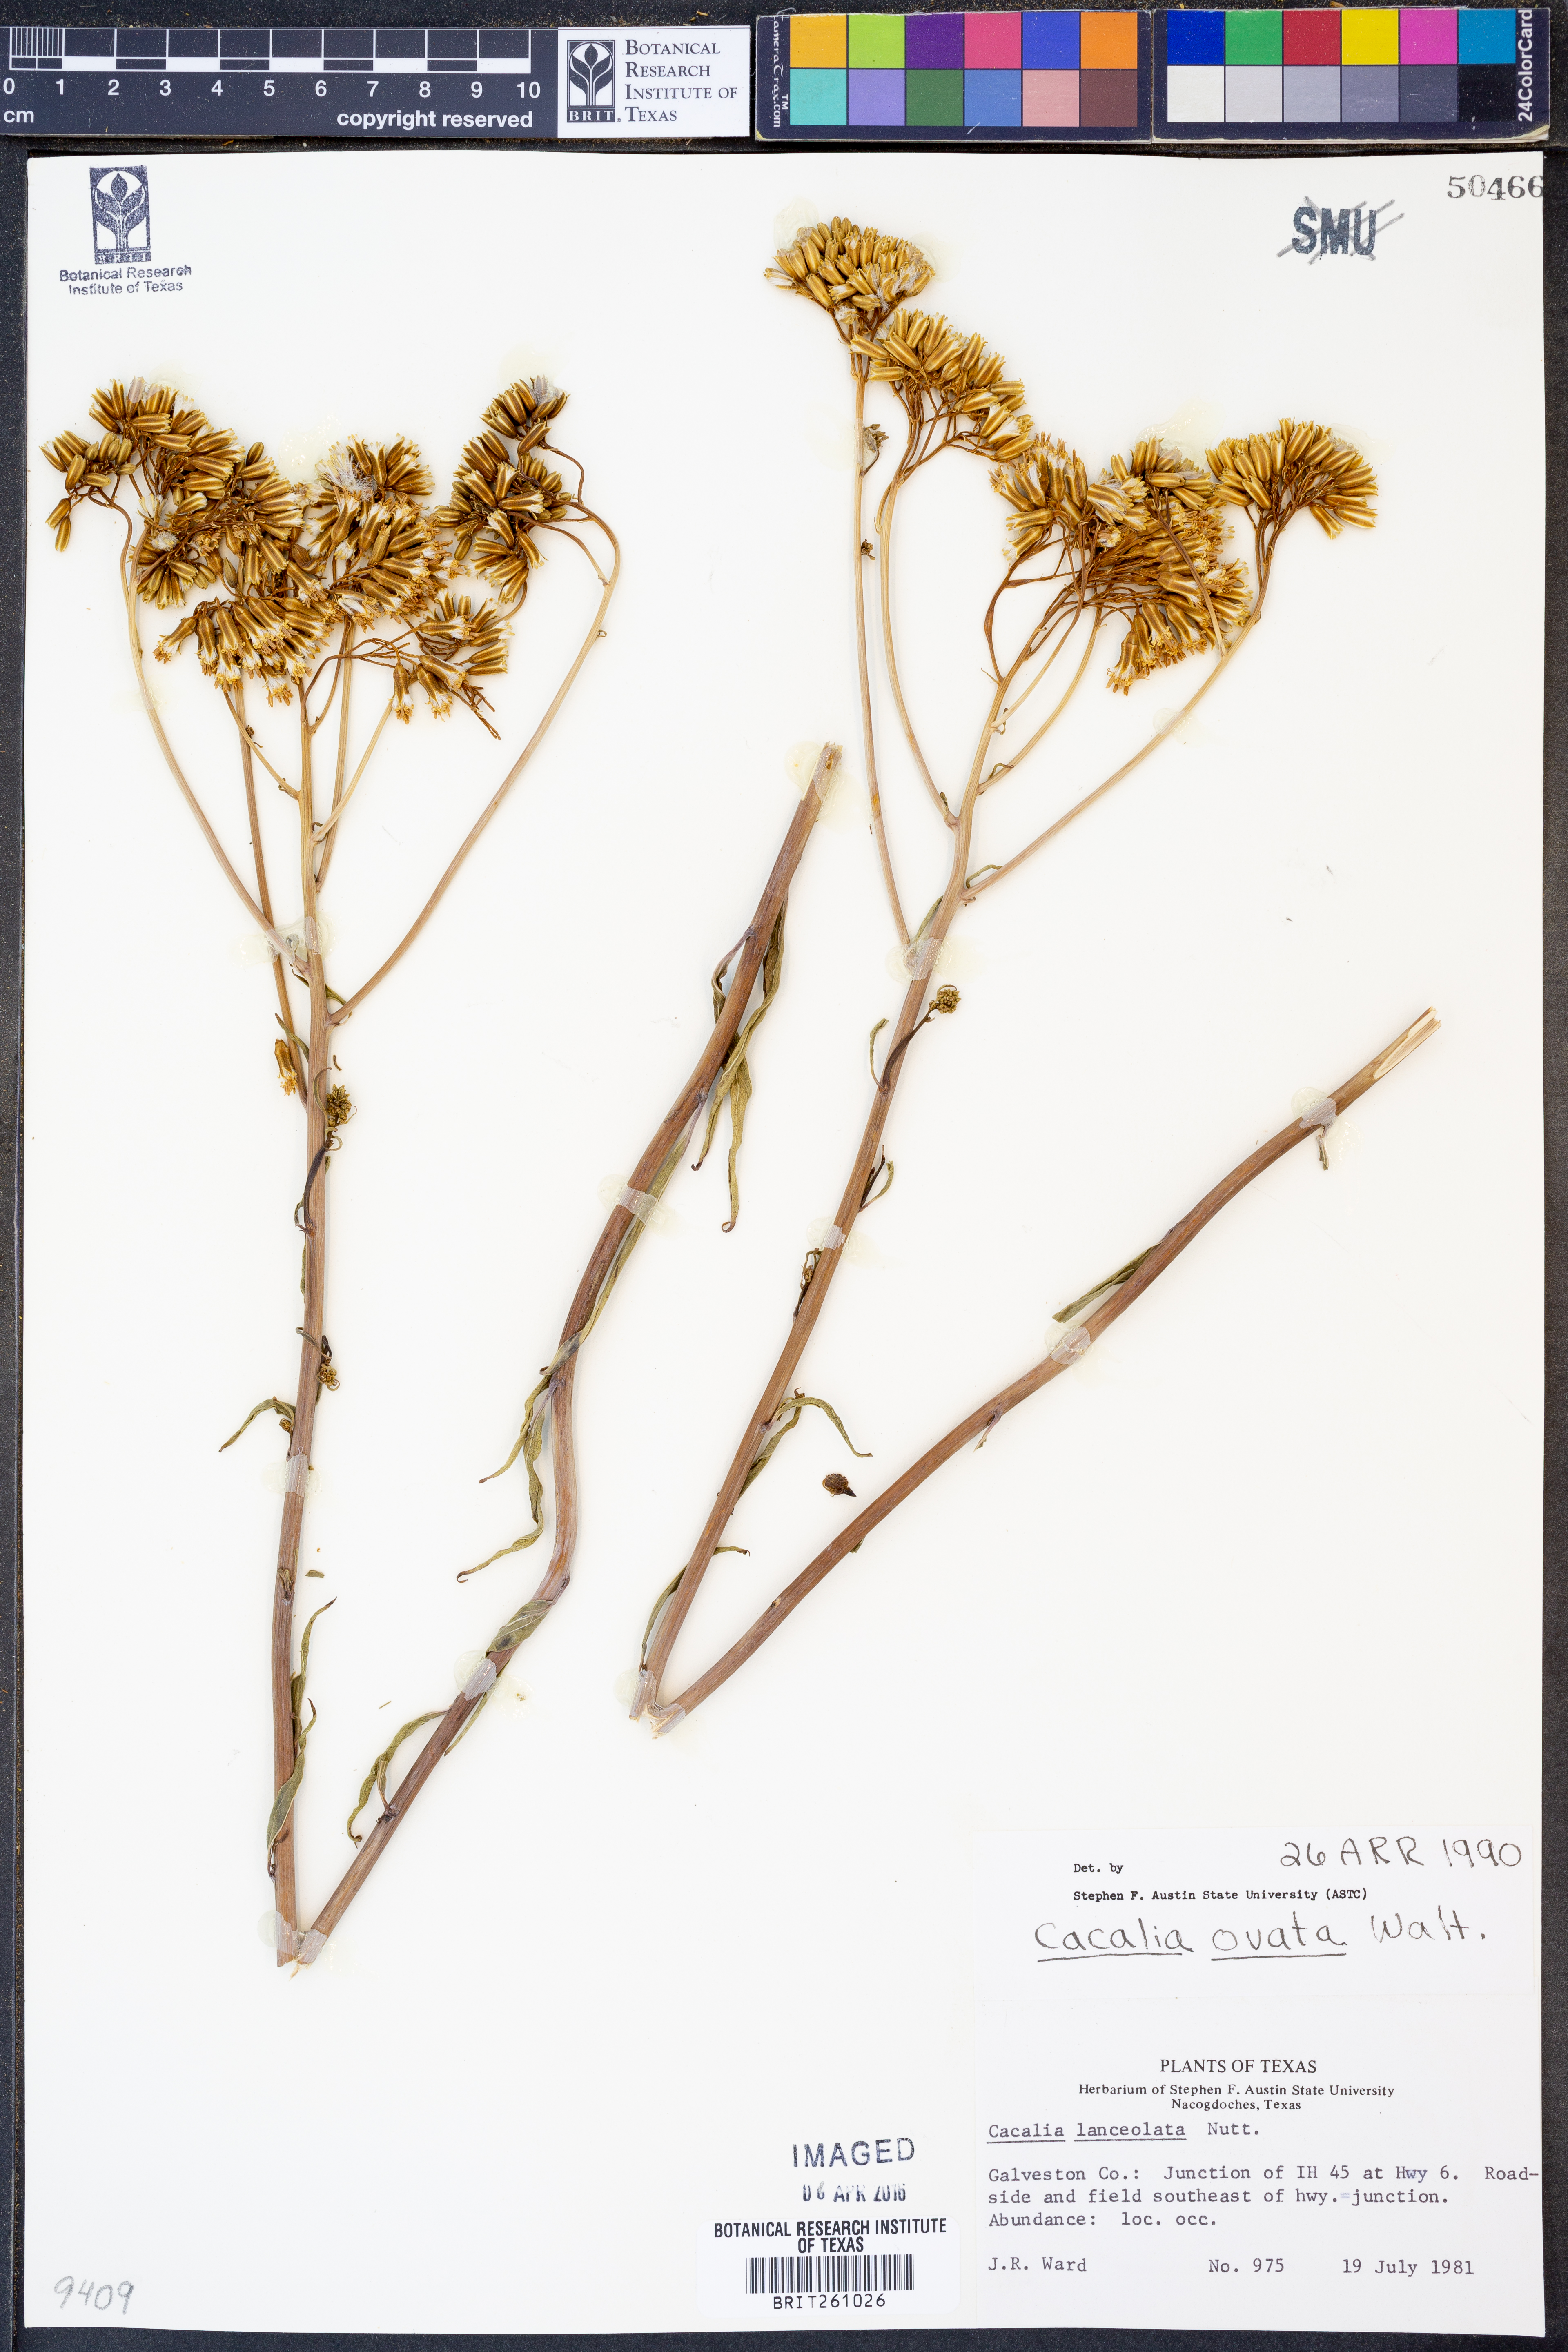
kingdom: Plantae
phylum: Tracheophyta
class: Magnoliopsida
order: Asterales
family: Asteraceae
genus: Adenostyles
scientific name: Adenostyles Cacalia ovata
